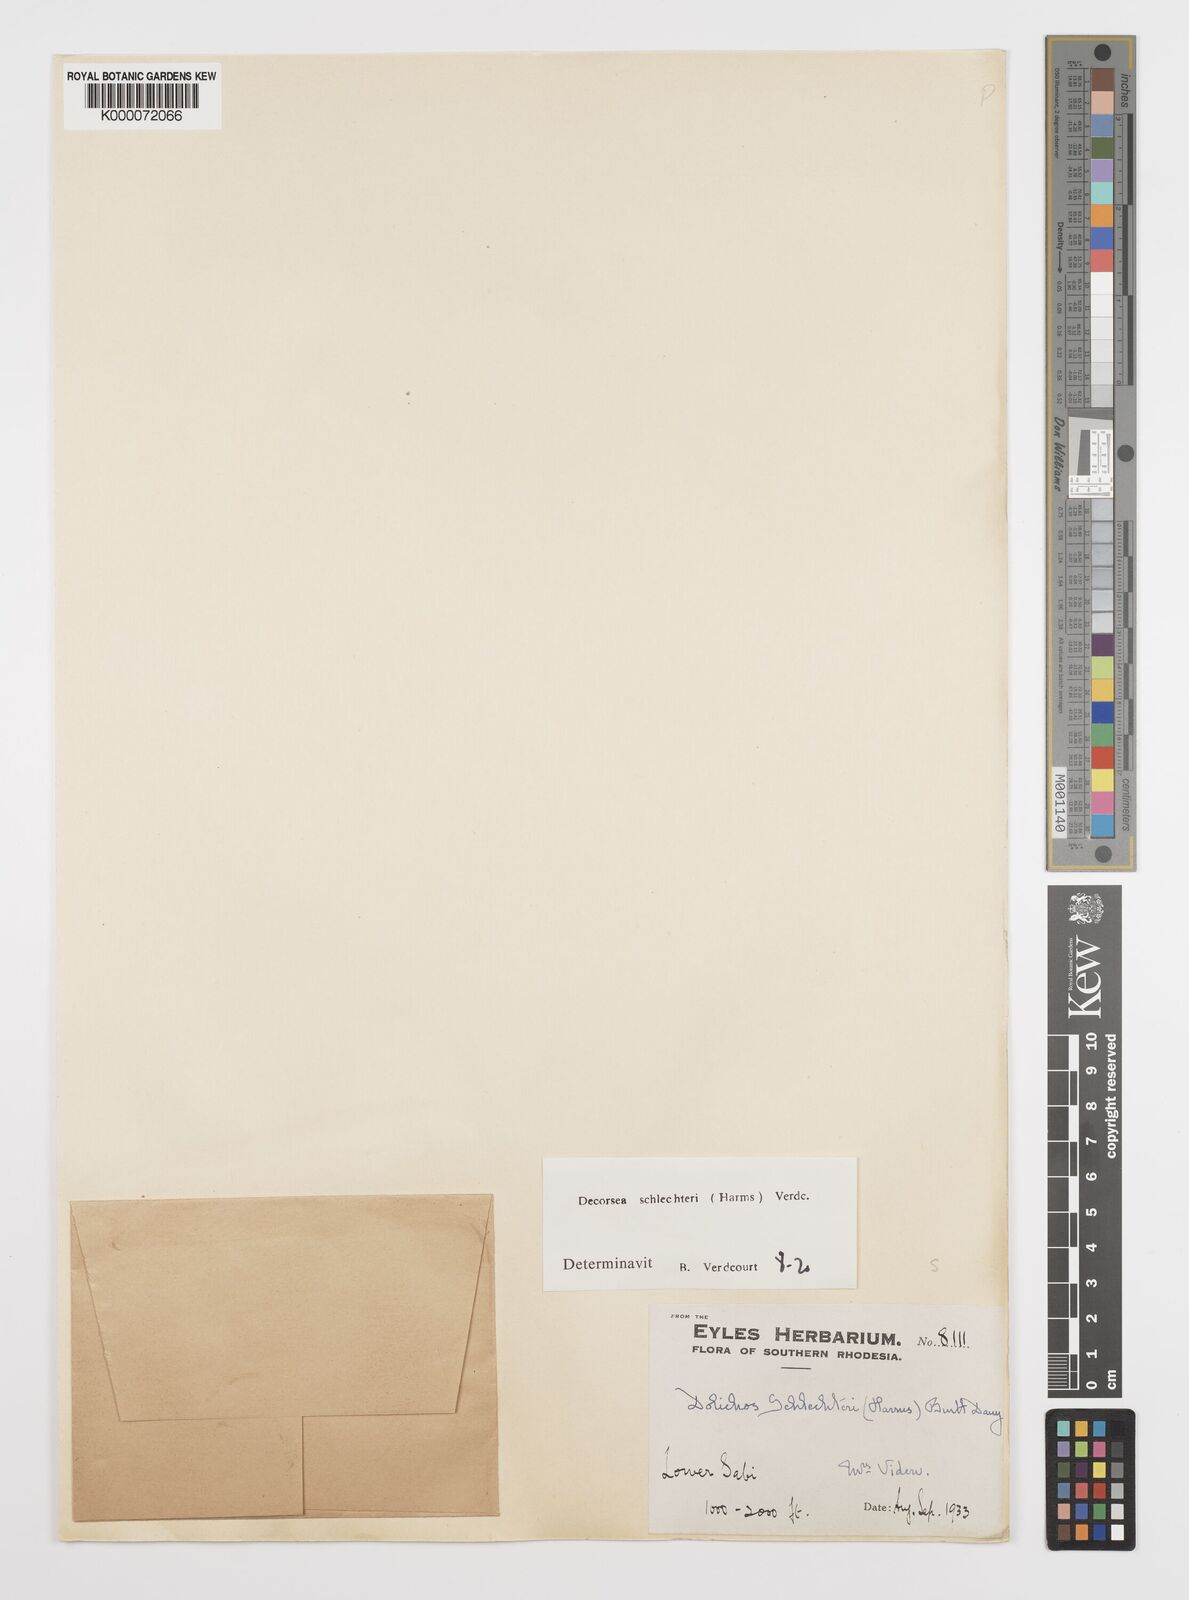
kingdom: Plantae
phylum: Tracheophyta
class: Magnoliopsida
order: Fabales
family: Fabaceae
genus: Decorsea
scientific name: Decorsea schlechteri
